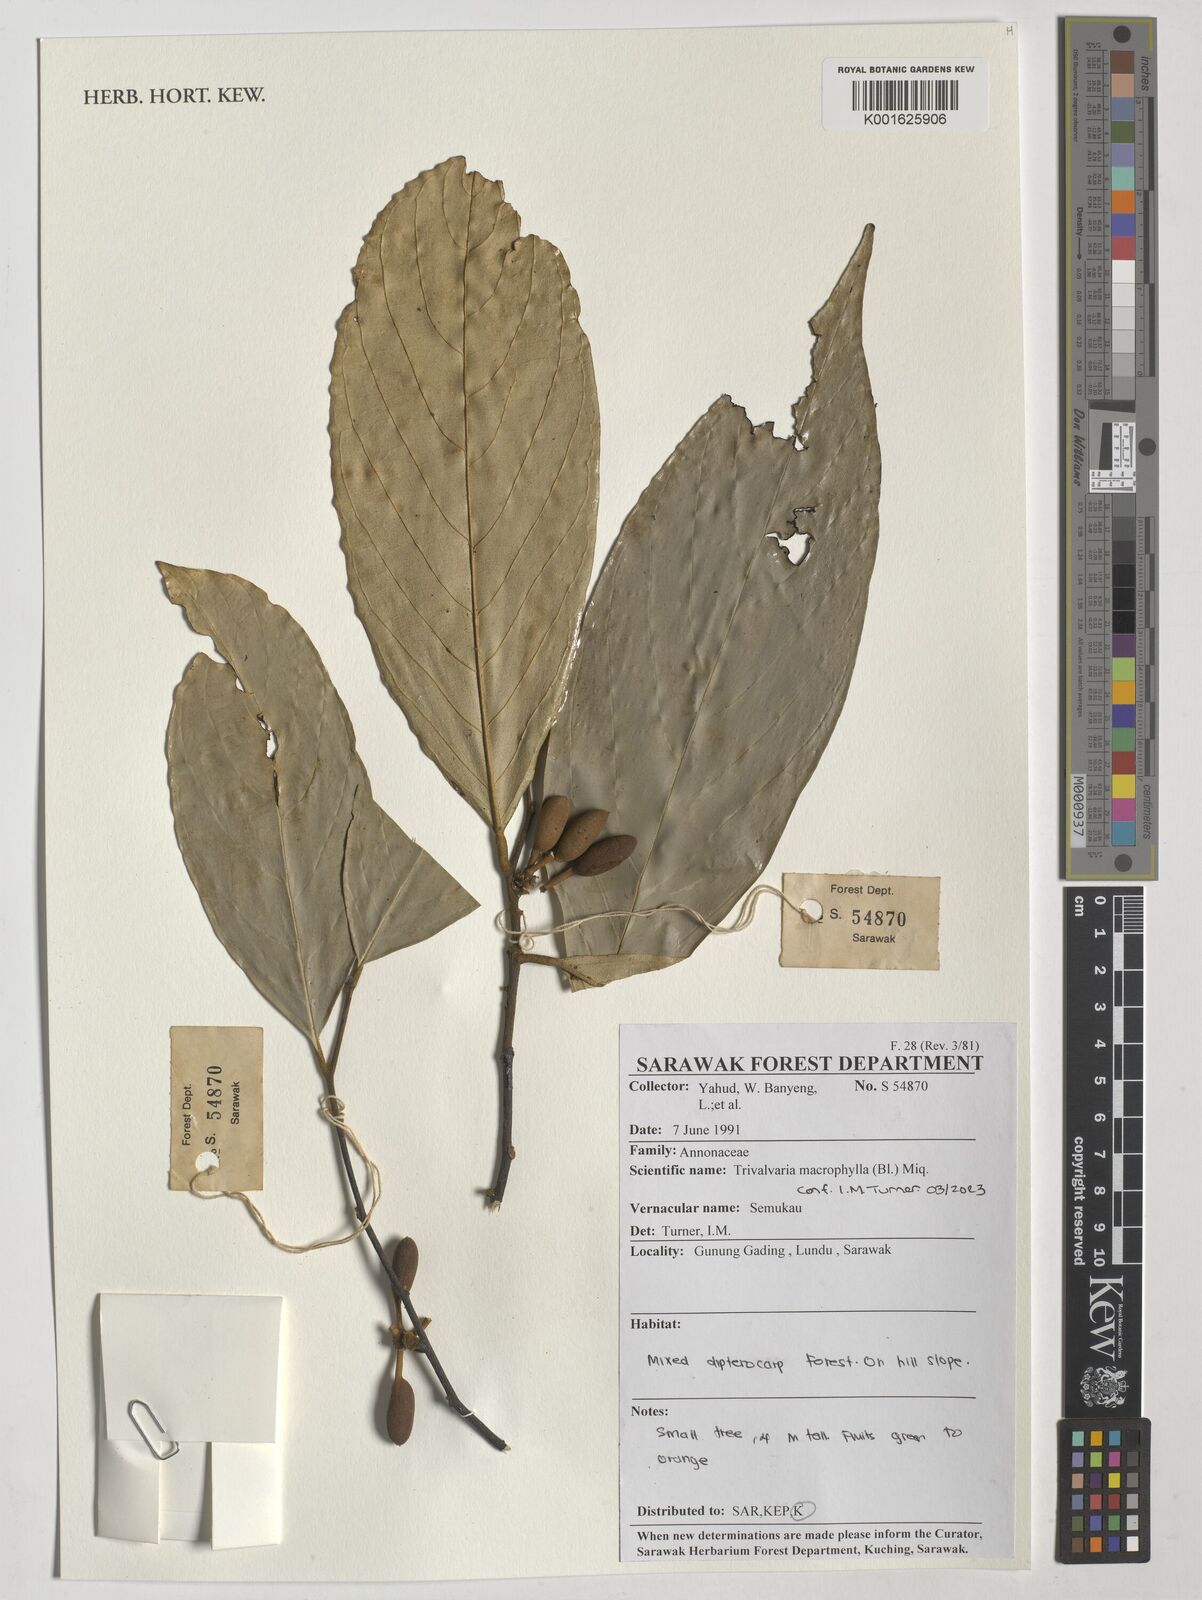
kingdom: Plantae
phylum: Tracheophyta
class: Magnoliopsida
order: Magnoliales
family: Annonaceae
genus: Trivalvaria
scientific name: Trivalvaria macrophylla
